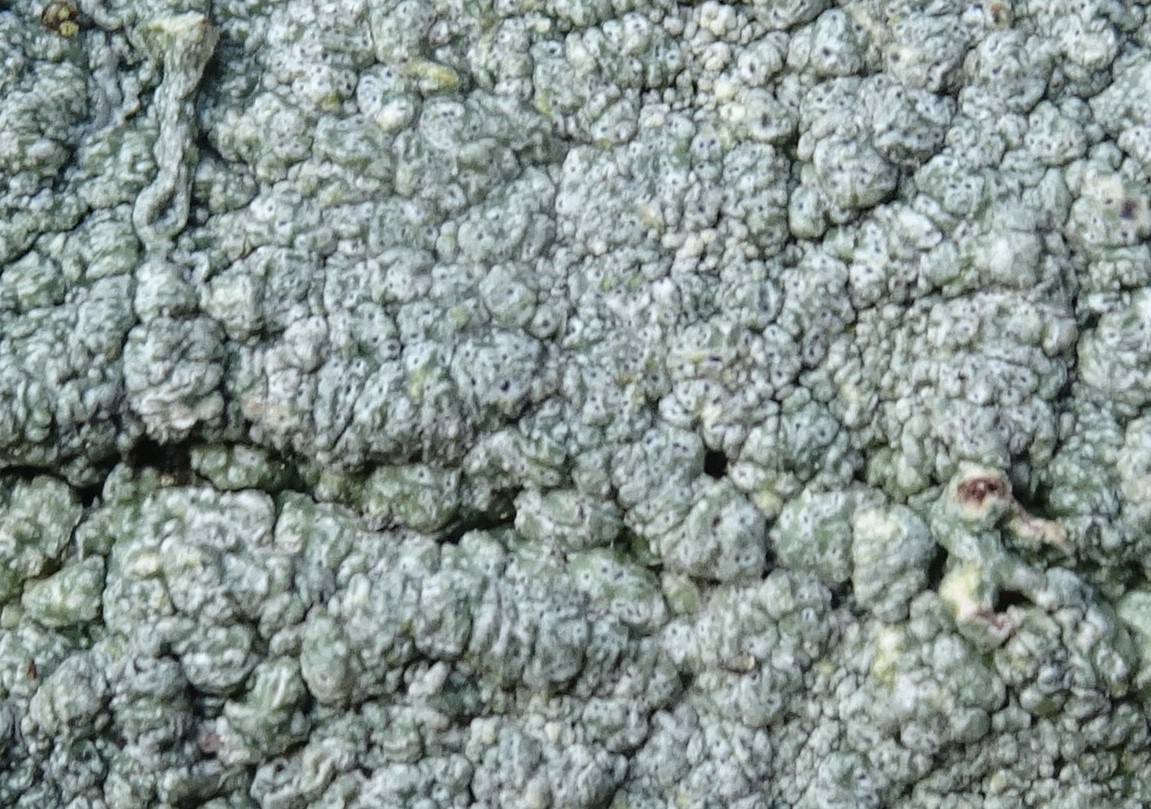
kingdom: Fungi
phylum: Ascomycota
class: Lecanoromycetes
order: Pertusariales
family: Pertusariaceae
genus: Pertusaria
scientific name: Pertusaria pertusa
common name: almindelig prikvortelav
